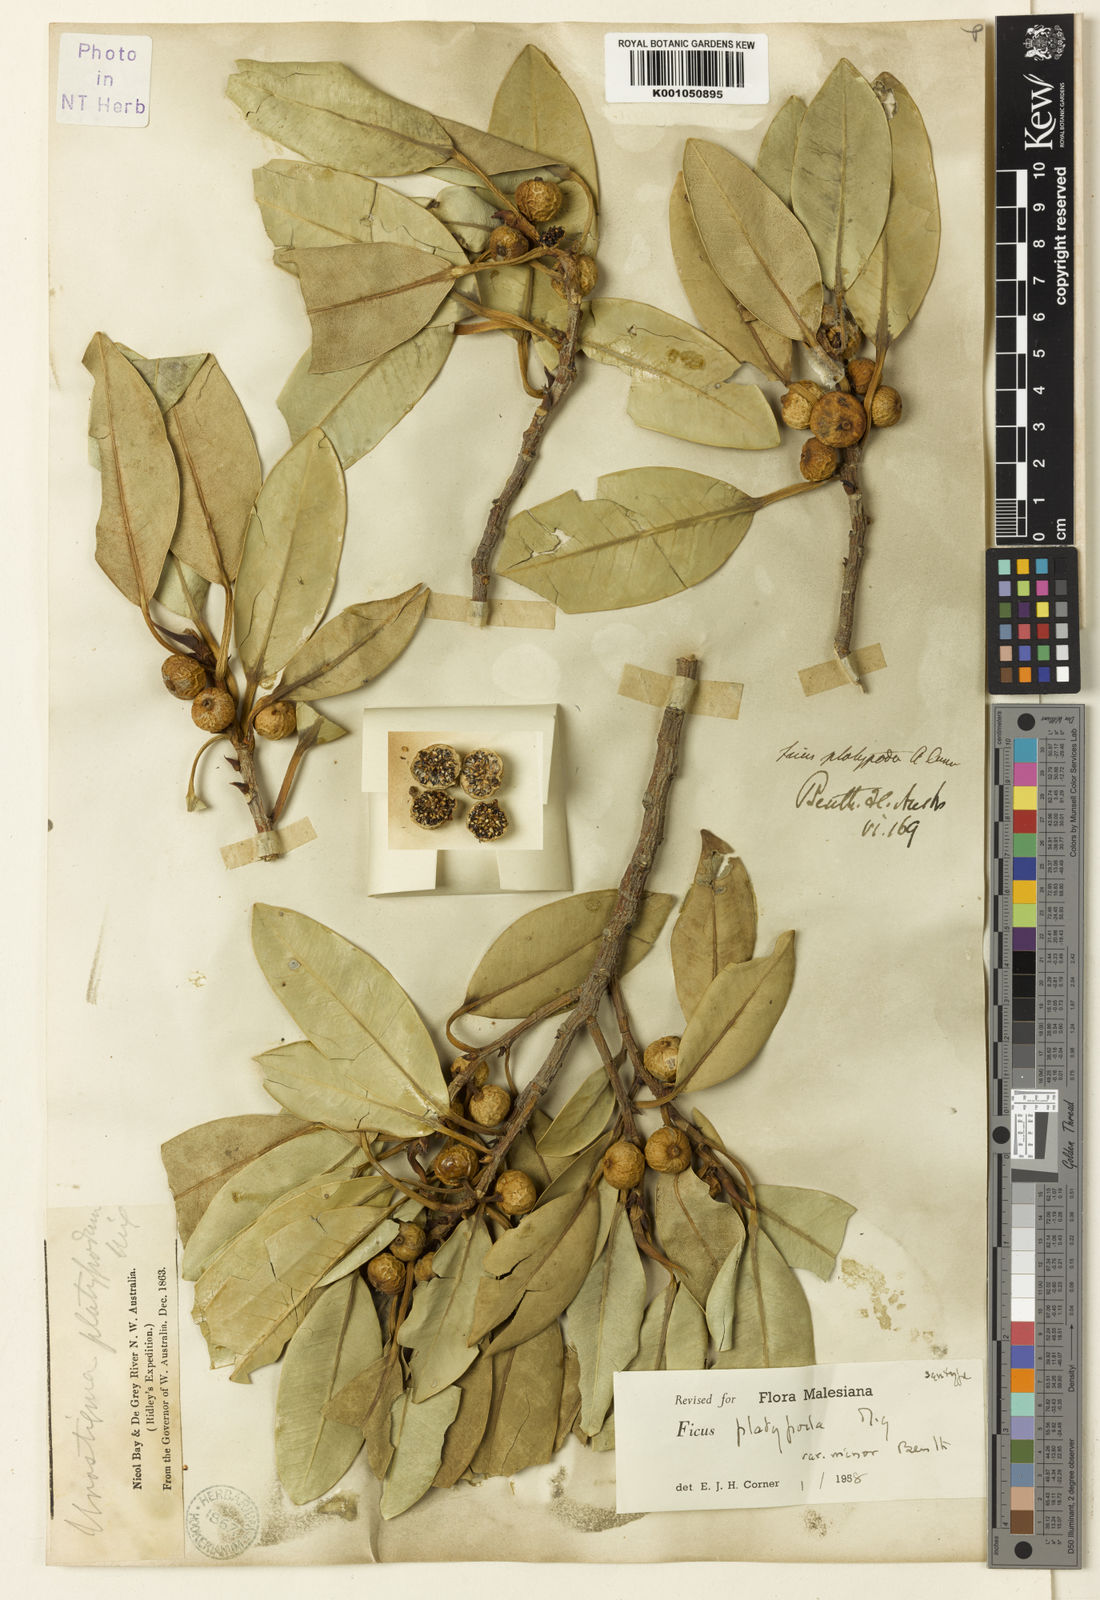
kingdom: Plantae
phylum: Tracheophyta
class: Magnoliopsida
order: Rosales
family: Moraceae
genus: Ficus
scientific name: Ficus platypoda
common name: Fig
